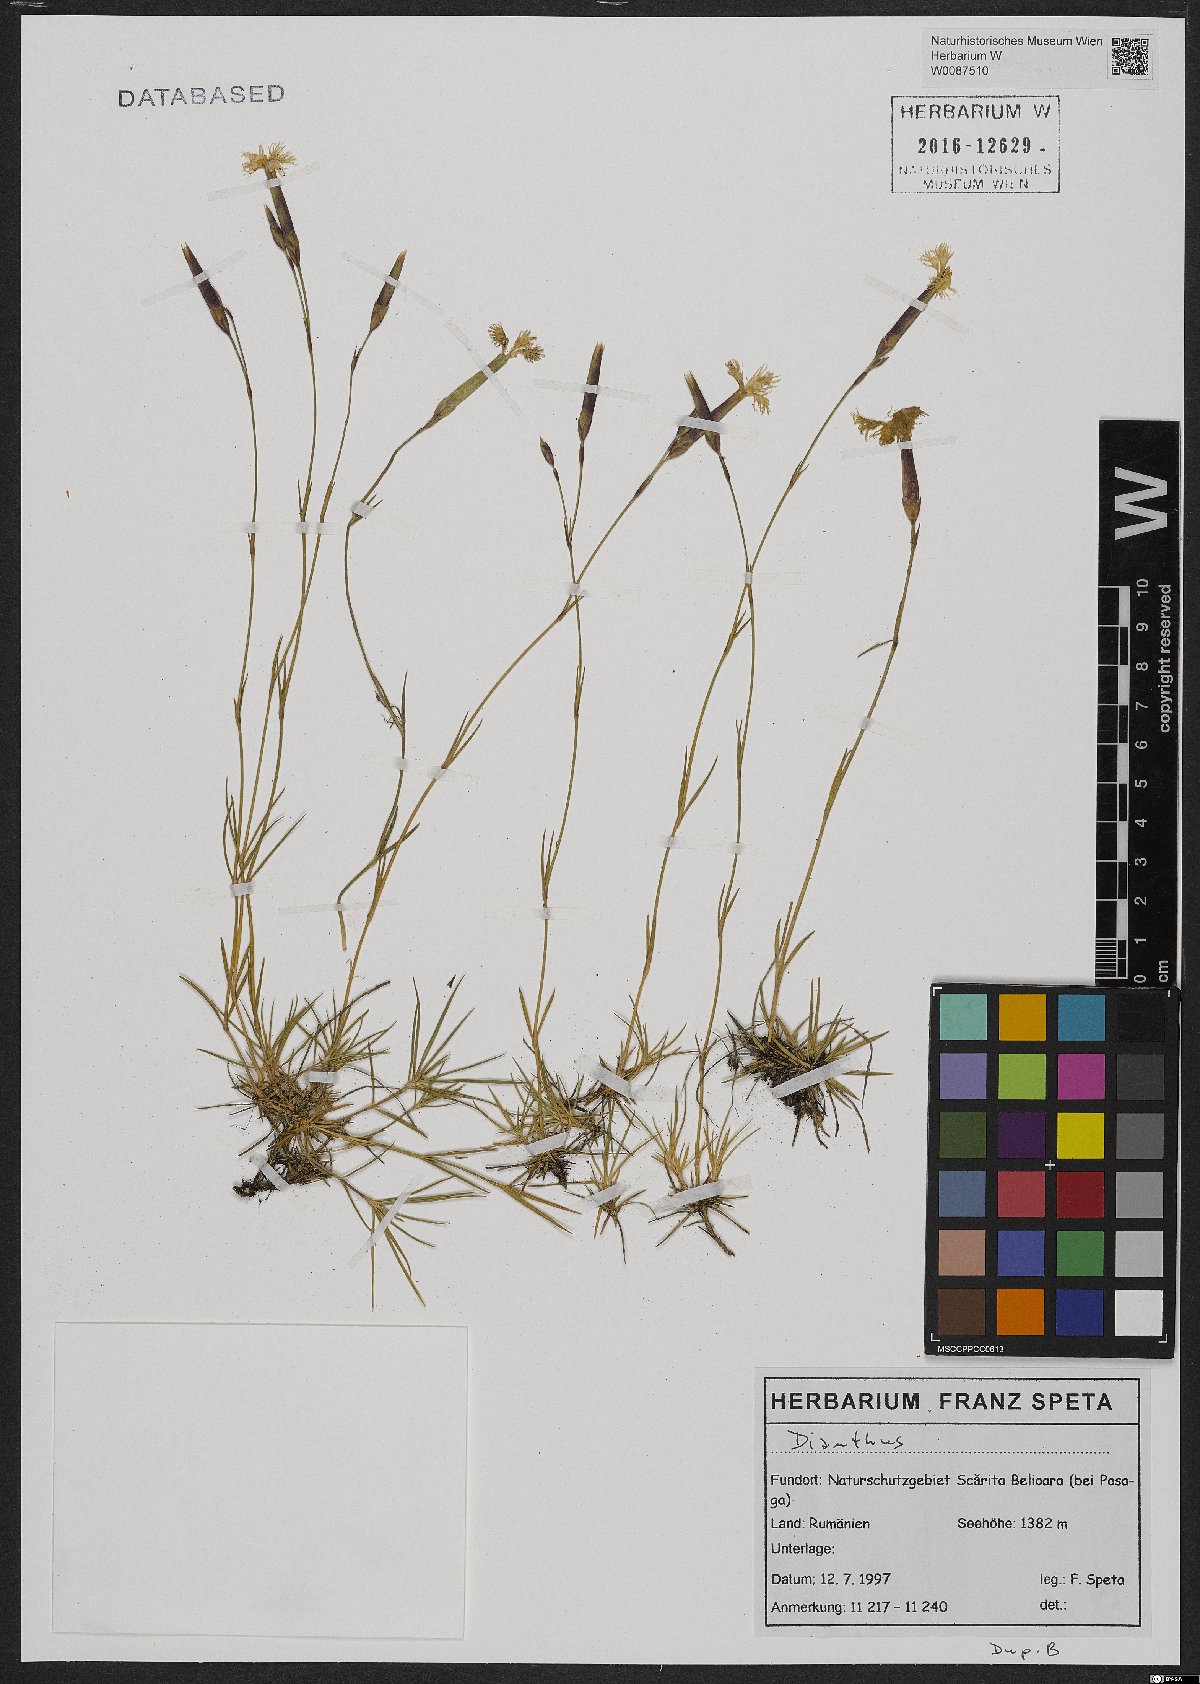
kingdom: Plantae
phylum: Tracheophyta
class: Magnoliopsida
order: Caryophyllales
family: Caryophyllaceae
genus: Dianthus
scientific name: Dianthus
